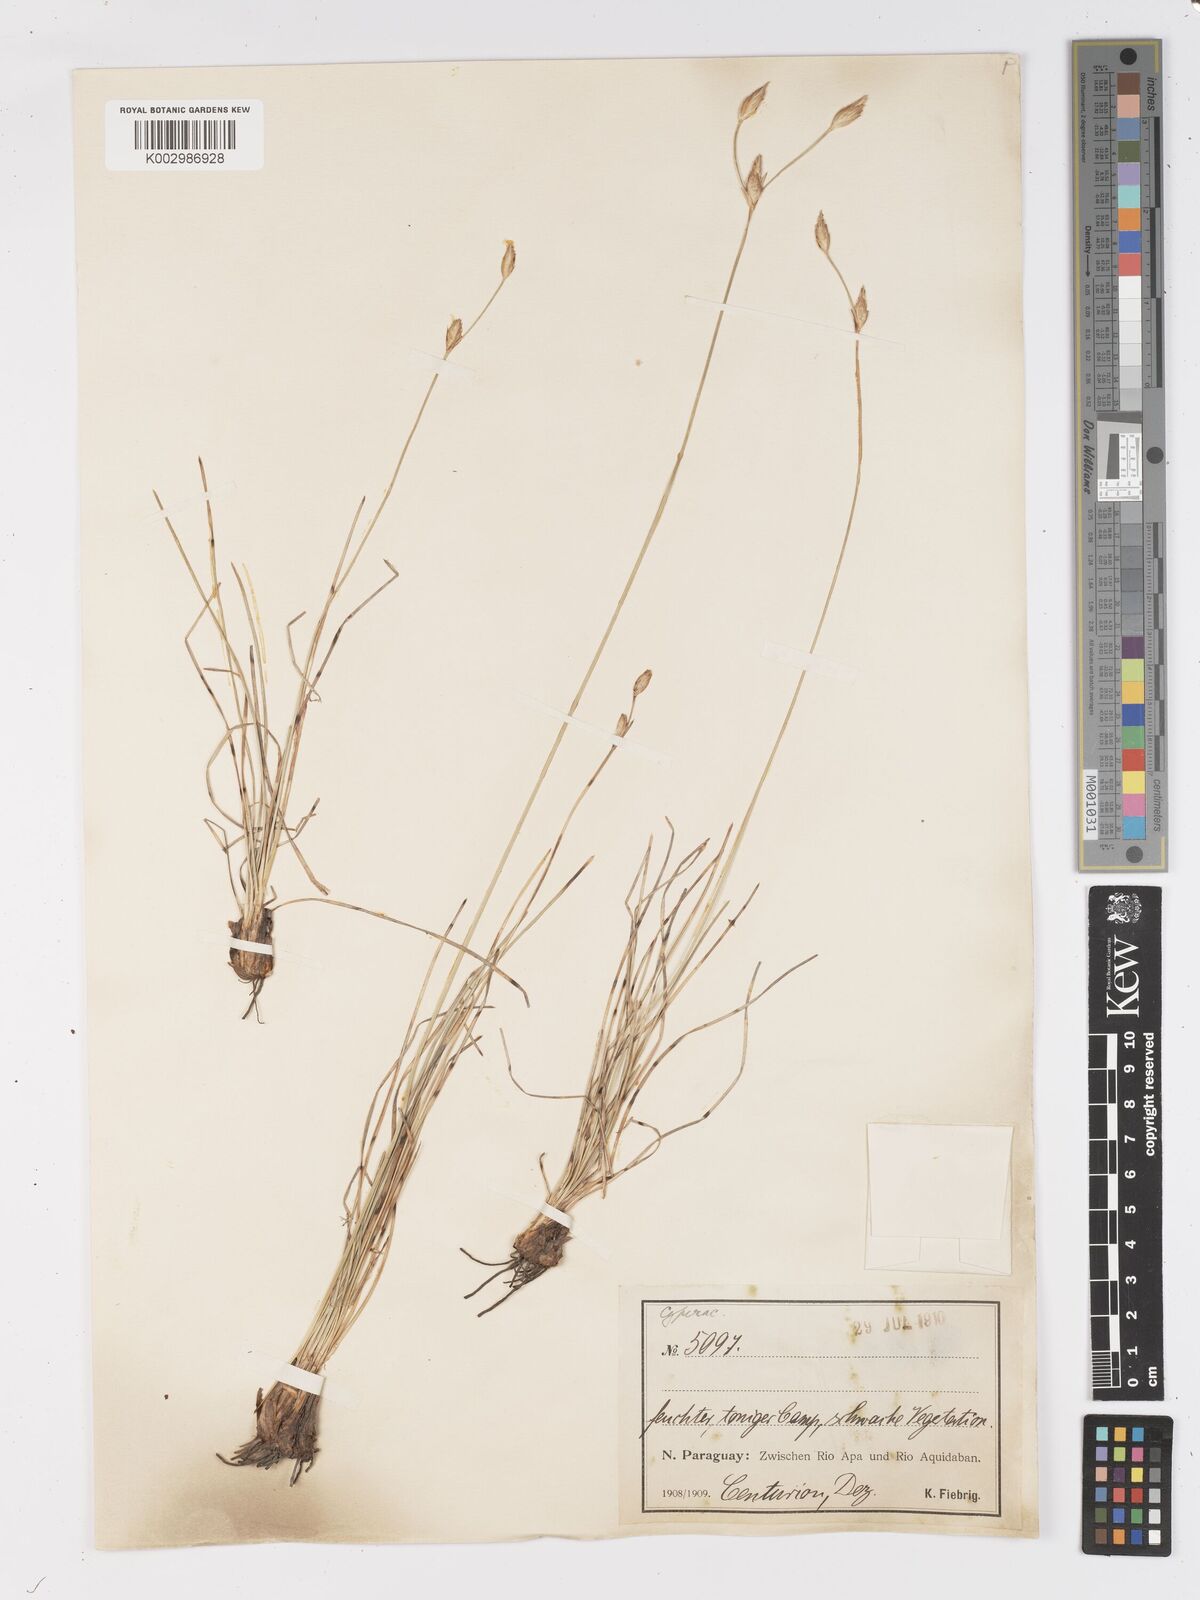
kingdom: Plantae
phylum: Tracheophyta
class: Liliopsida
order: Poales
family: Cyperaceae
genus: Abildgaardia
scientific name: Abildgaardia ovata
